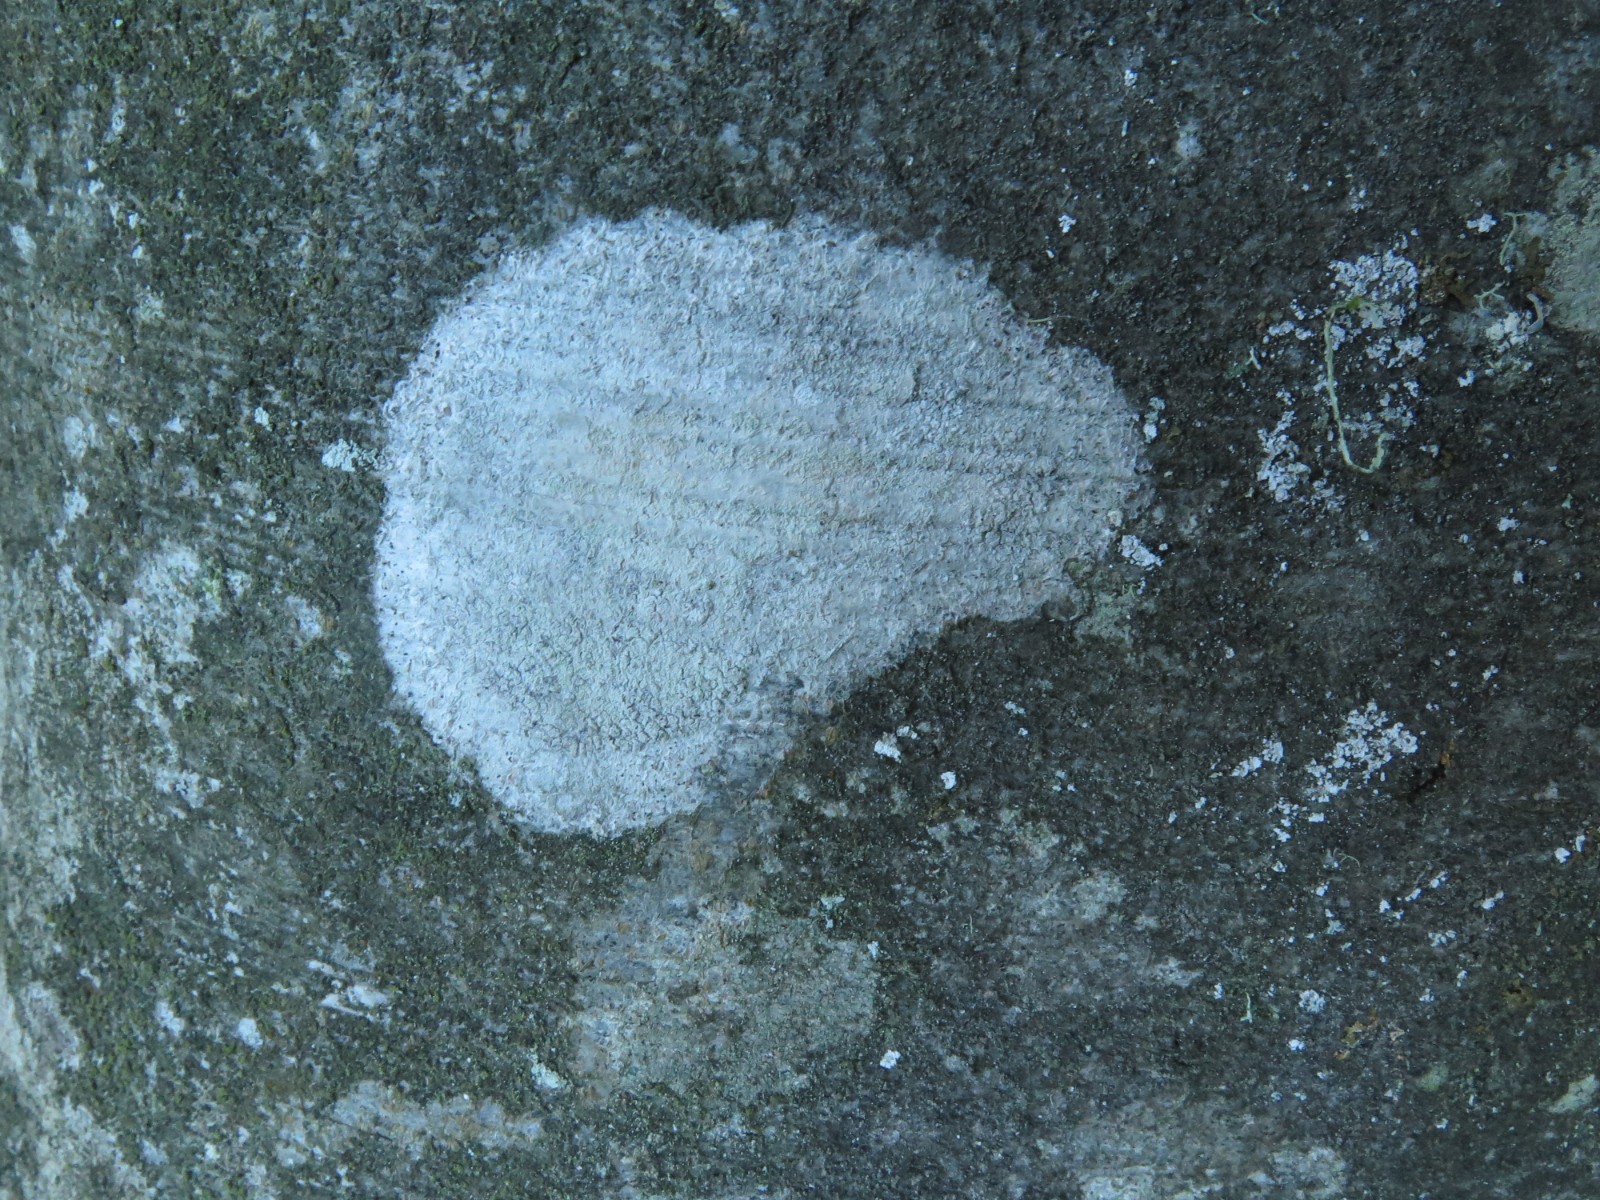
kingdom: Fungi
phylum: Ascomycota
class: Lecanoromycetes
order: Ostropales
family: Phlyctidaceae
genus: Phlyctis
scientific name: Phlyctis argena
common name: almindelig sølvlav
